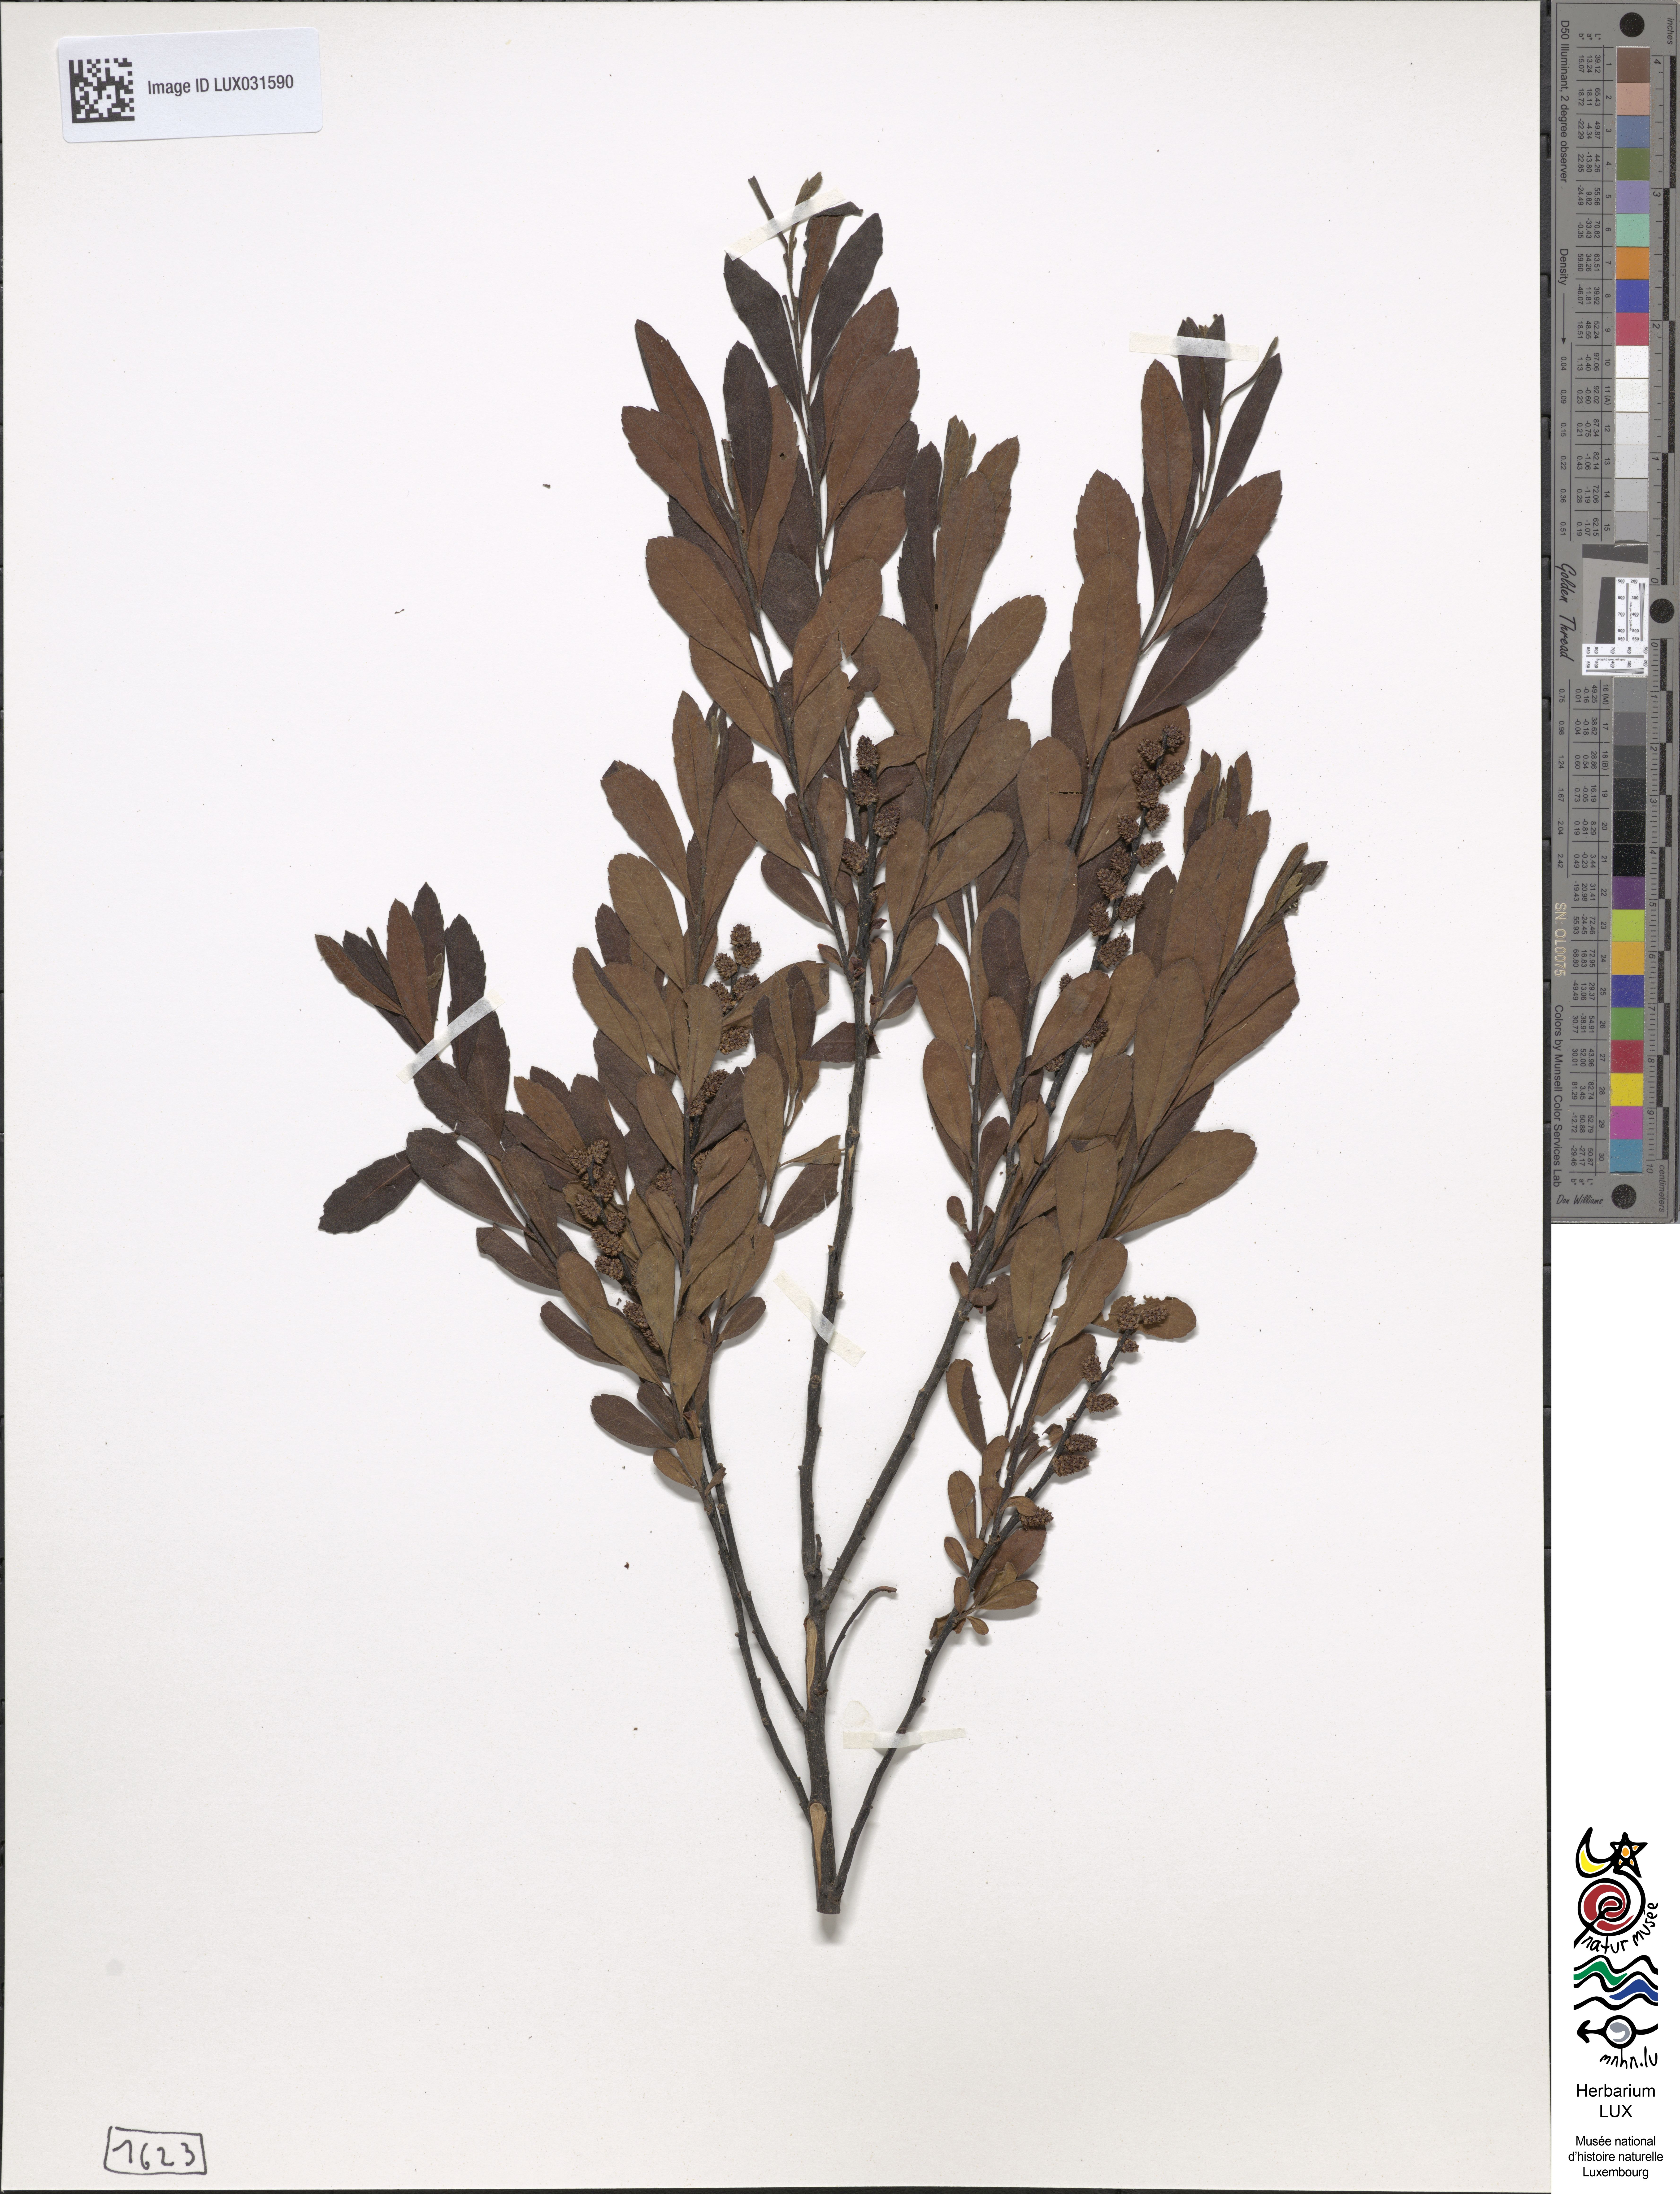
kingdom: Plantae
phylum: Tracheophyta
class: Magnoliopsida
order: Fagales
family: Myricaceae
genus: Myrica
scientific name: Myrica gale
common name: Sweet gale
